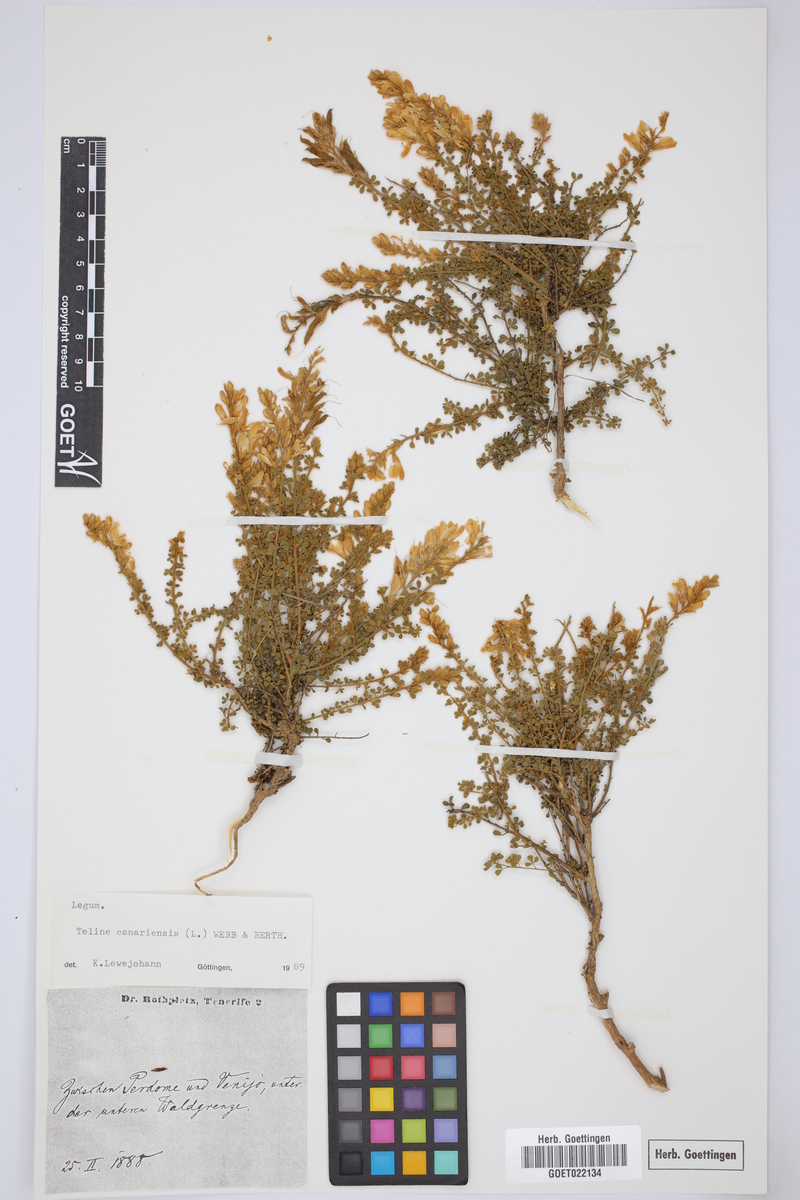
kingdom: Plantae
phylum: Tracheophyta
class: Magnoliopsida
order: Fabales
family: Fabaceae
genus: Genista
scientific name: Genista canariensis
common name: Canary broom
